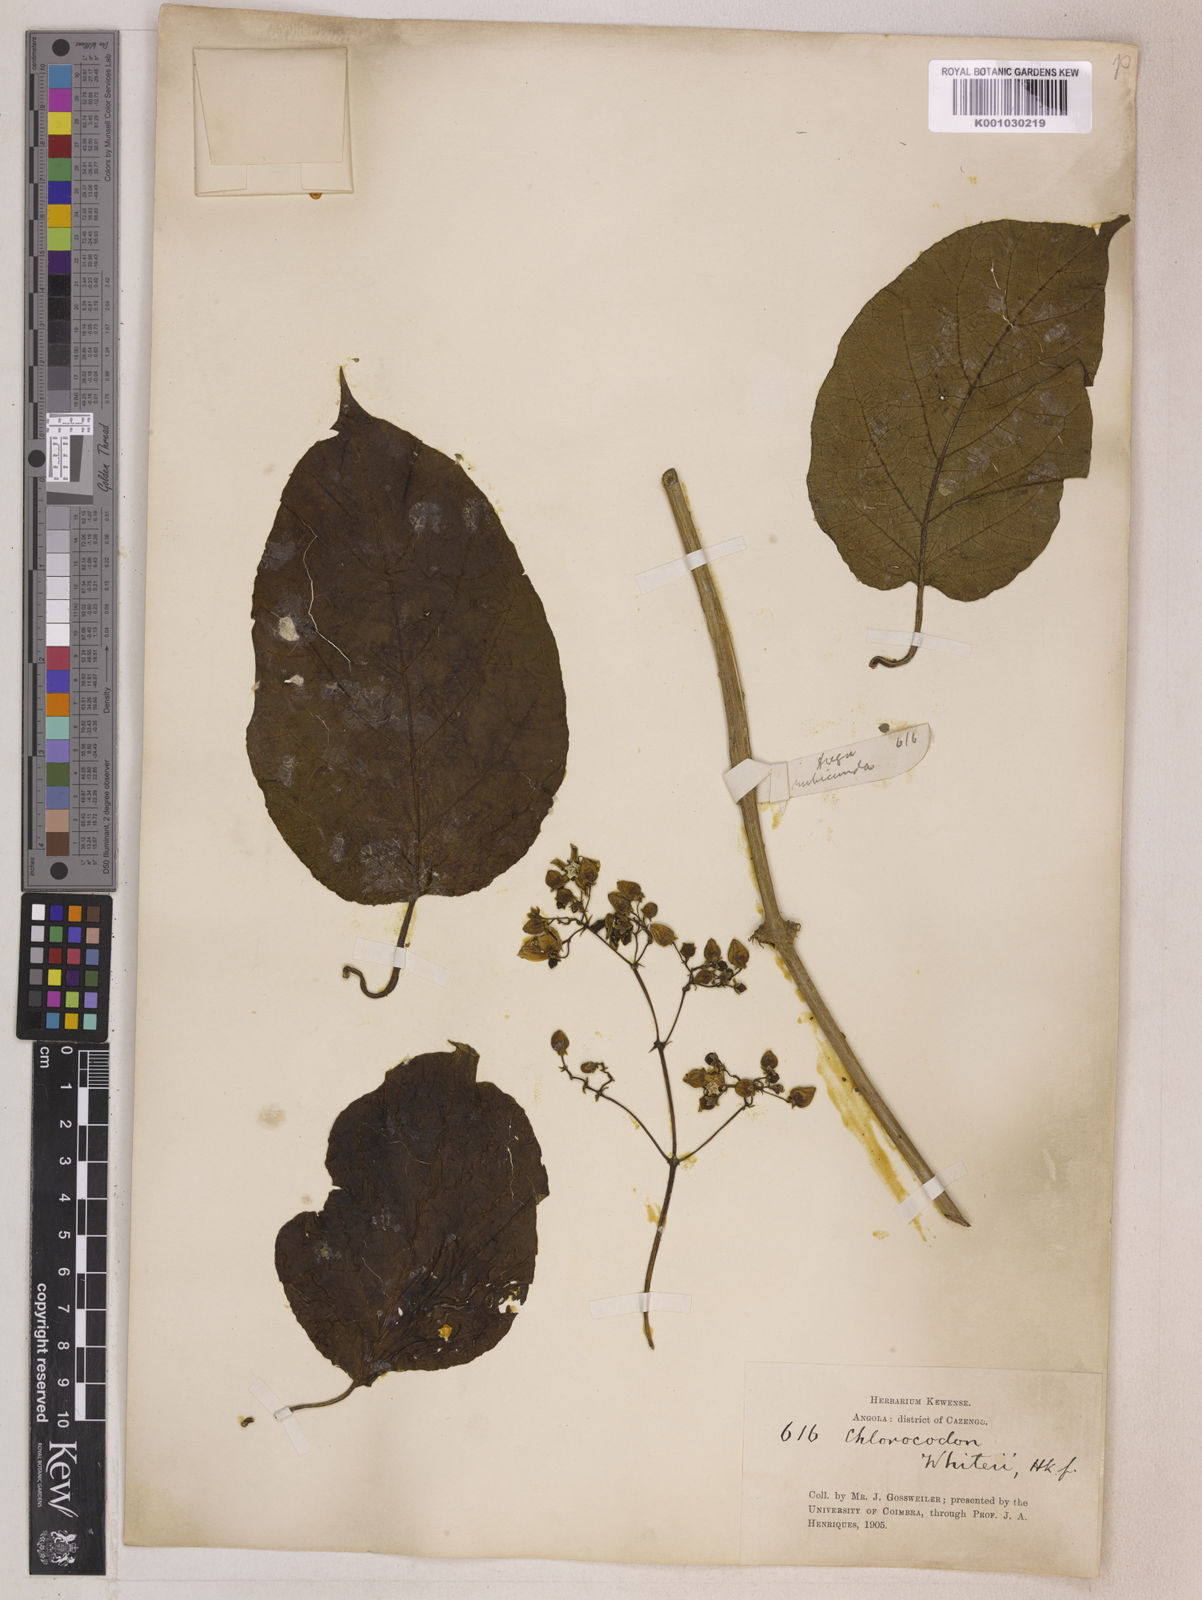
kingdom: Plantae
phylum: Tracheophyta
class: Magnoliopsida
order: Gentianales
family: Apocynaceae
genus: Mondia
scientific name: Mondia whitei
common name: Mondia
